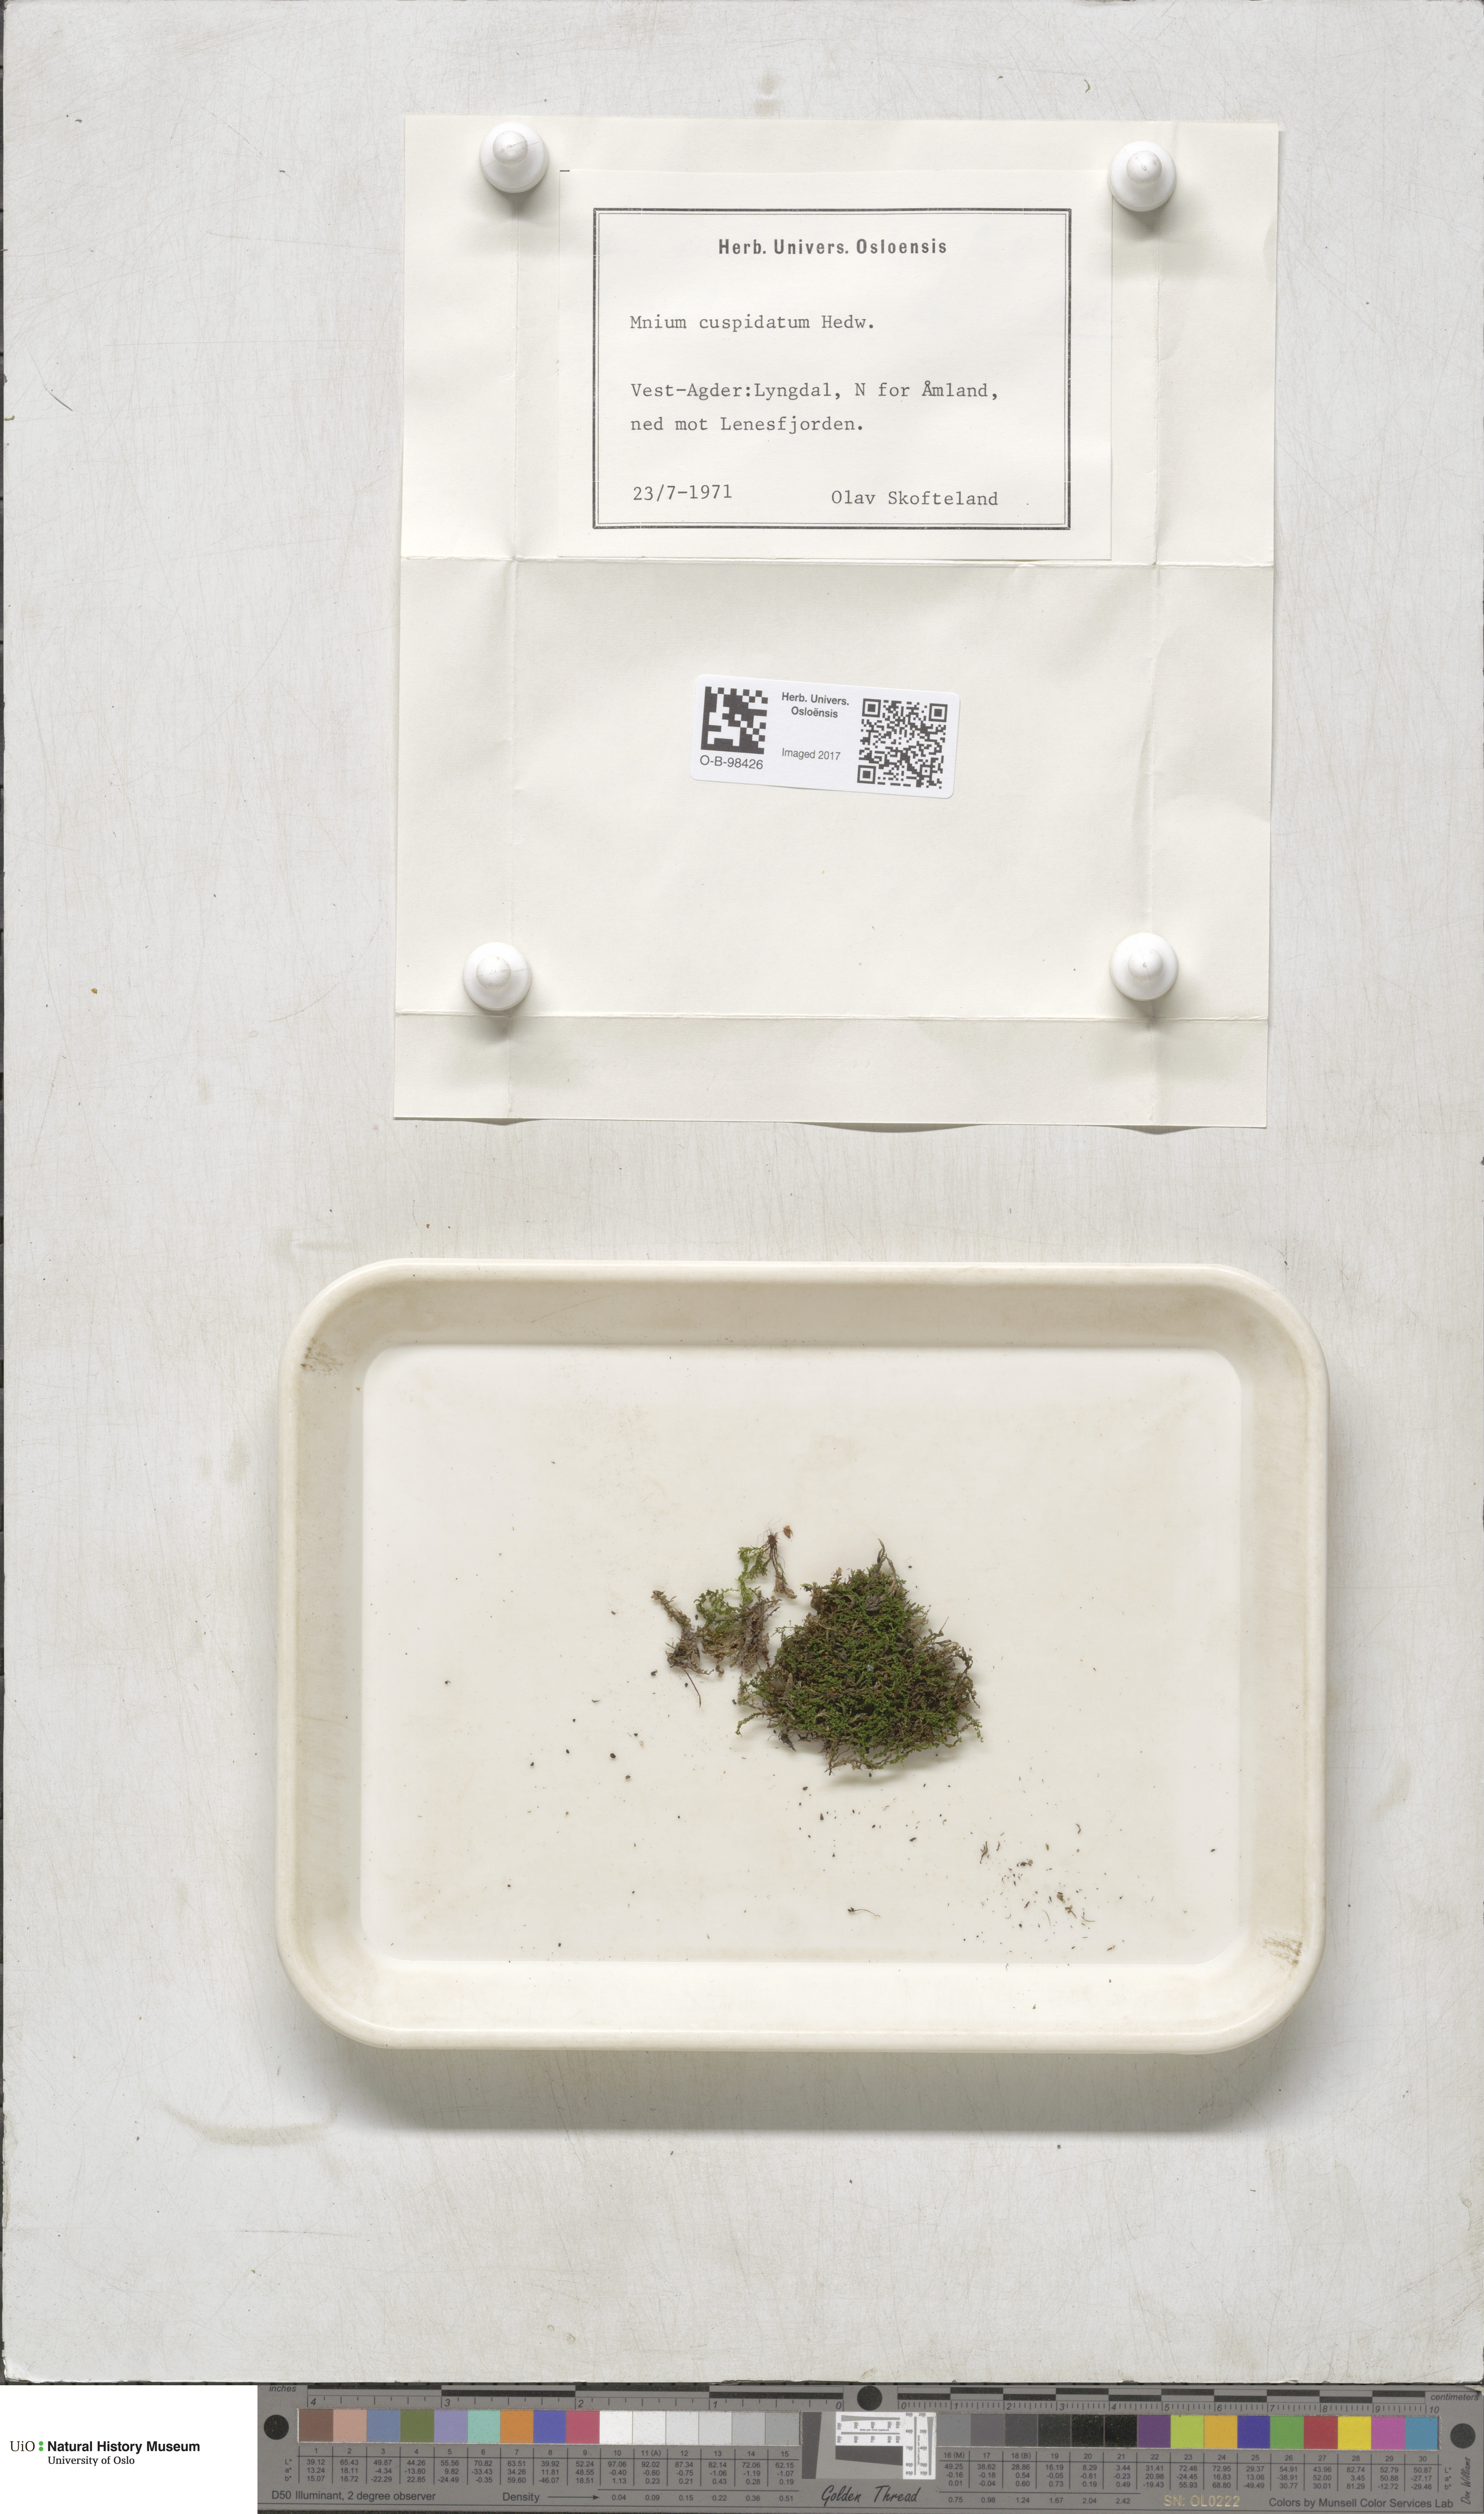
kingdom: Plantae
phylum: Bryophyta
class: Bryopsida
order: Bryales
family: Mniaceae
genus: Plagiomnium
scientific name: Plagiomnium cuspidatum
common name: Woodsy leafy moss
